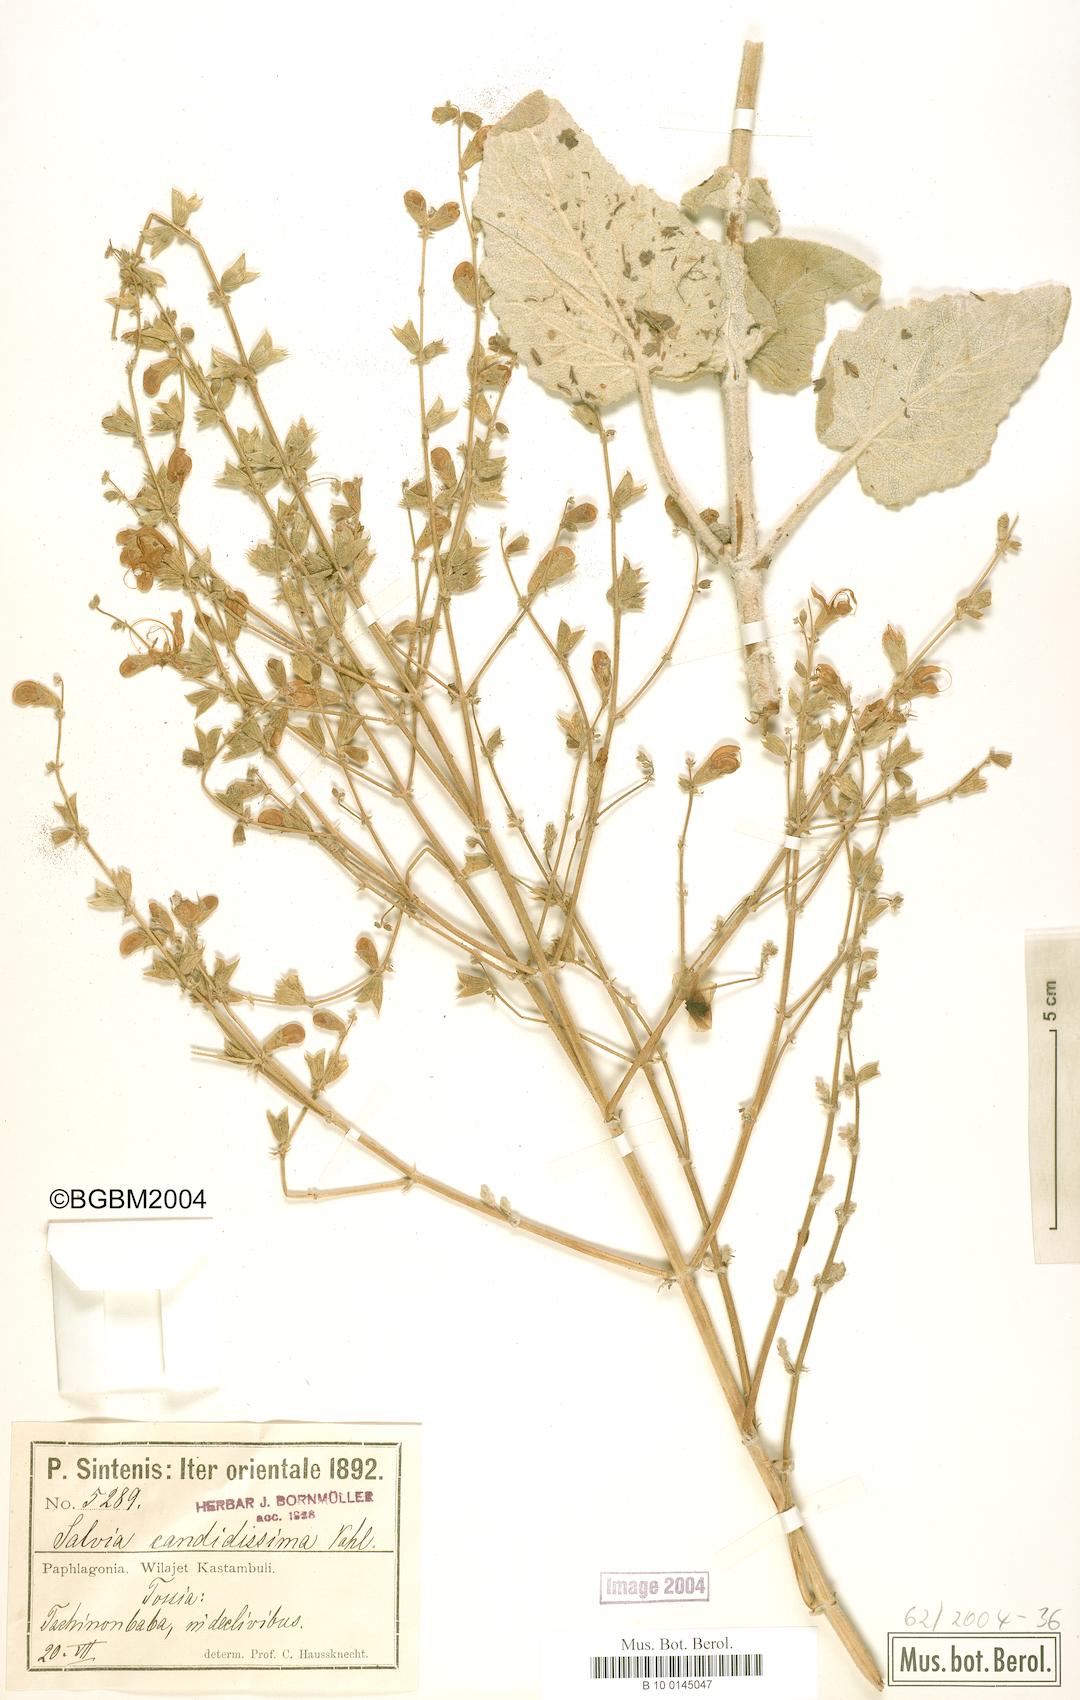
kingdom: Plantae
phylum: Tracheophyta
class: Magnoliopsida
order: Lamiales
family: Lamiaceae
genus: Salvia
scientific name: Salvia candidissima
